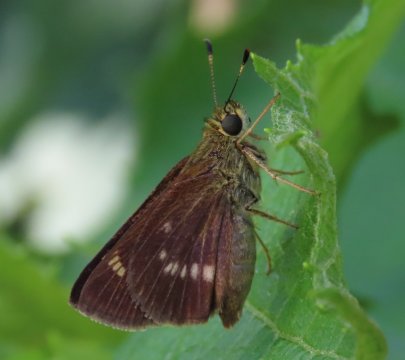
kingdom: Animalia
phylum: Arthropoda
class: Insecta
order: Lepidoptera
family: Hesperiidae
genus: Vernia
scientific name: Vernia verna
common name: Little Glassywing
